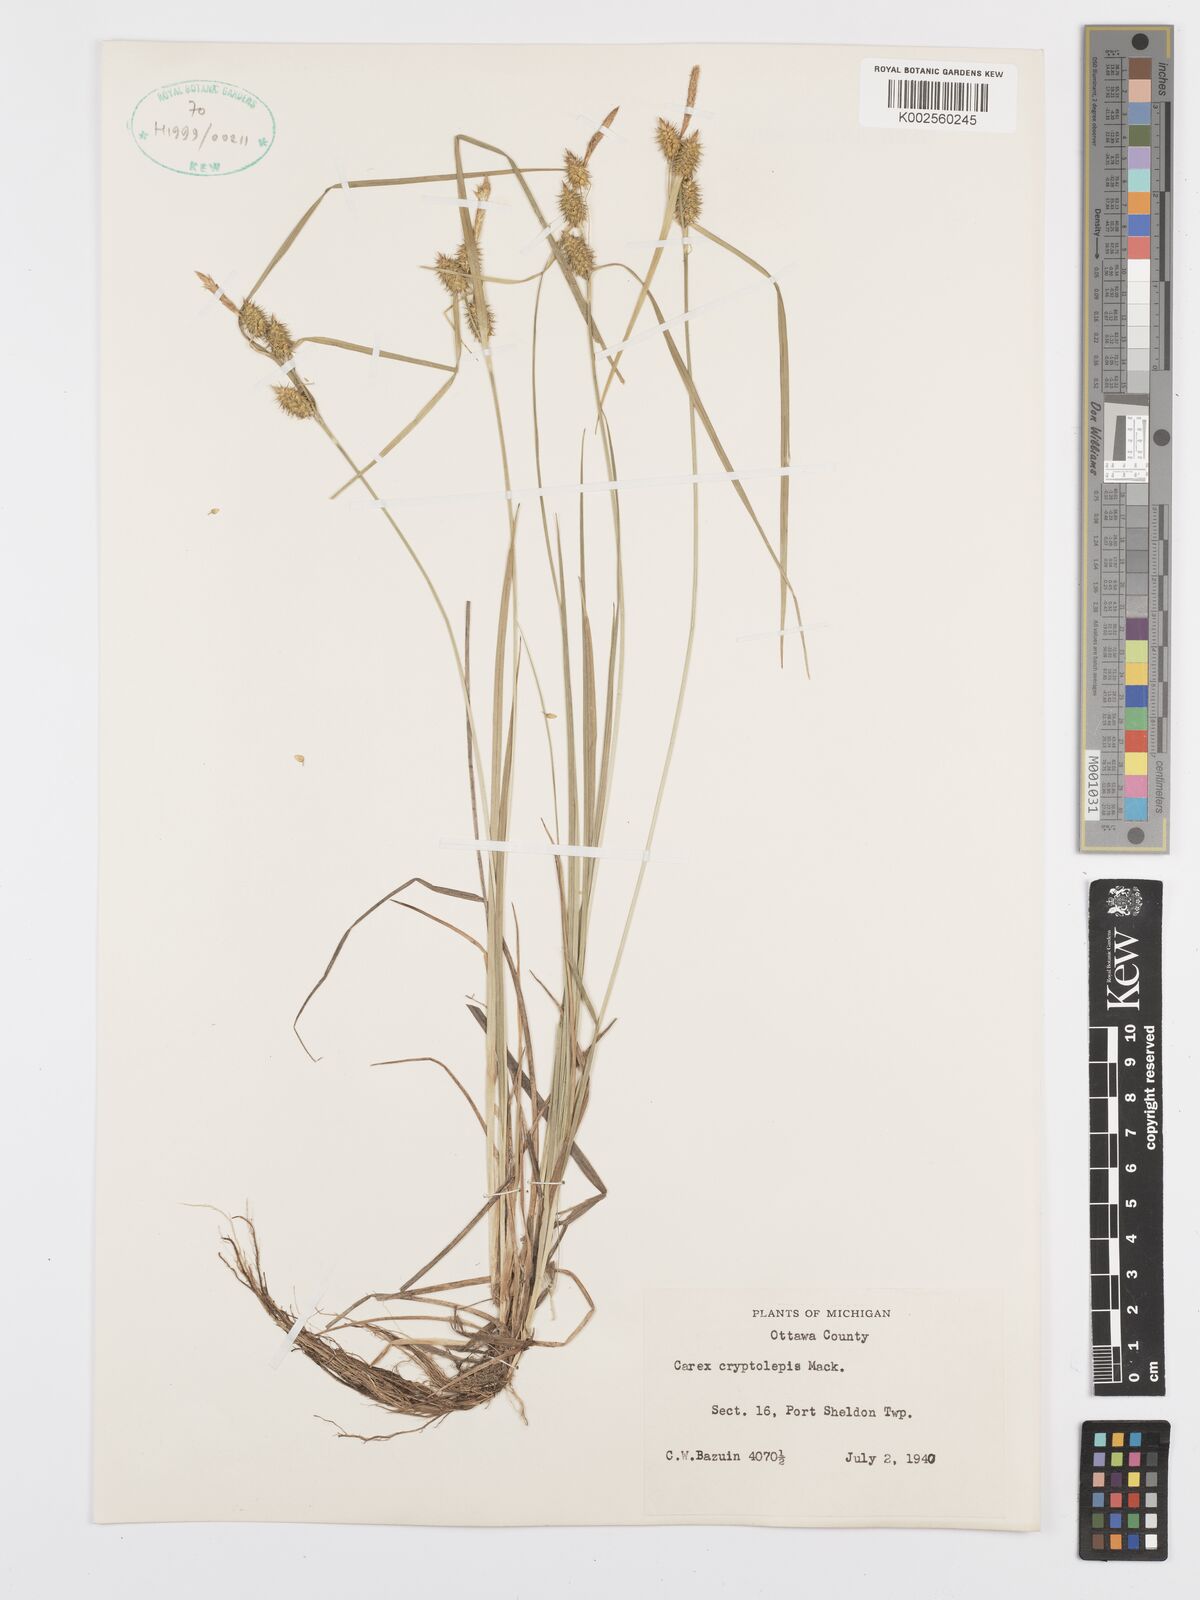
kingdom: Plantae
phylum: Tracheophyta
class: Liliopsida
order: Poales
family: Cyperaceae
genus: Carex
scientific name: Carex cryptolepis
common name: Northeastern sedge
